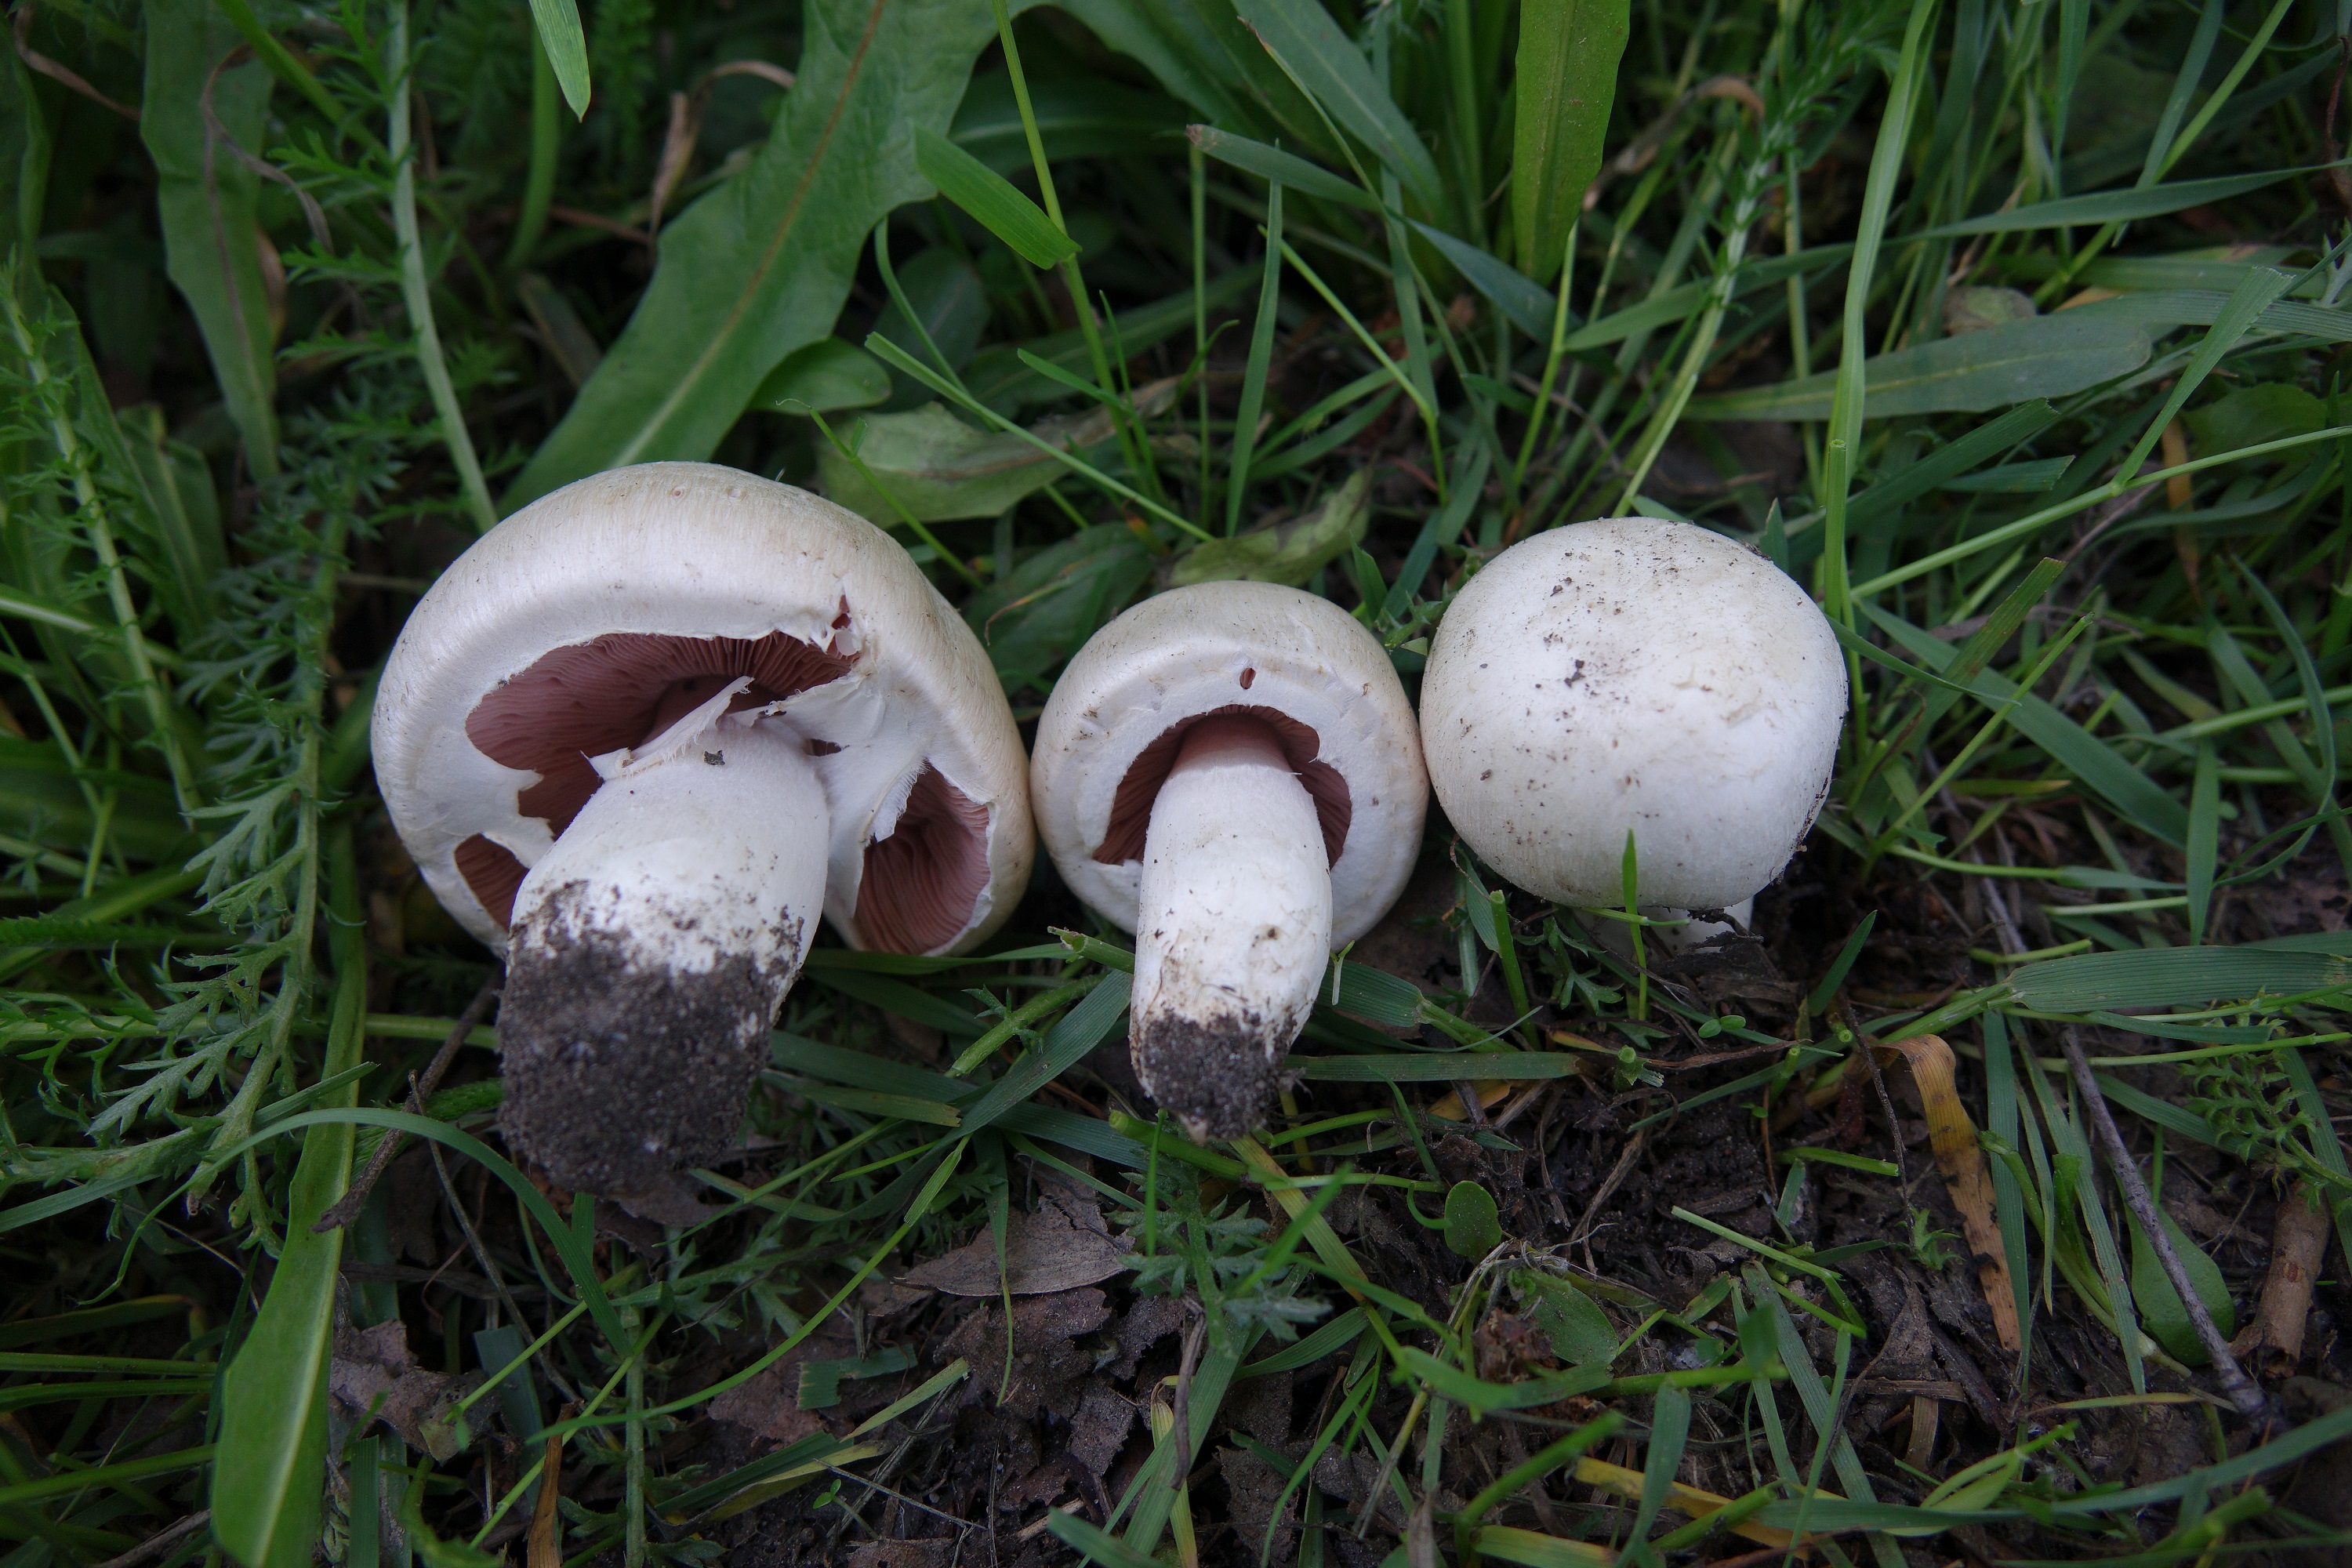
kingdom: Fungi
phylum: Basidiomycota
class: Agaricomycetes
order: Agaricales
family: Agaricaceae
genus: Agaricus
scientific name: Agaricus campestris
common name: Field mushroom
